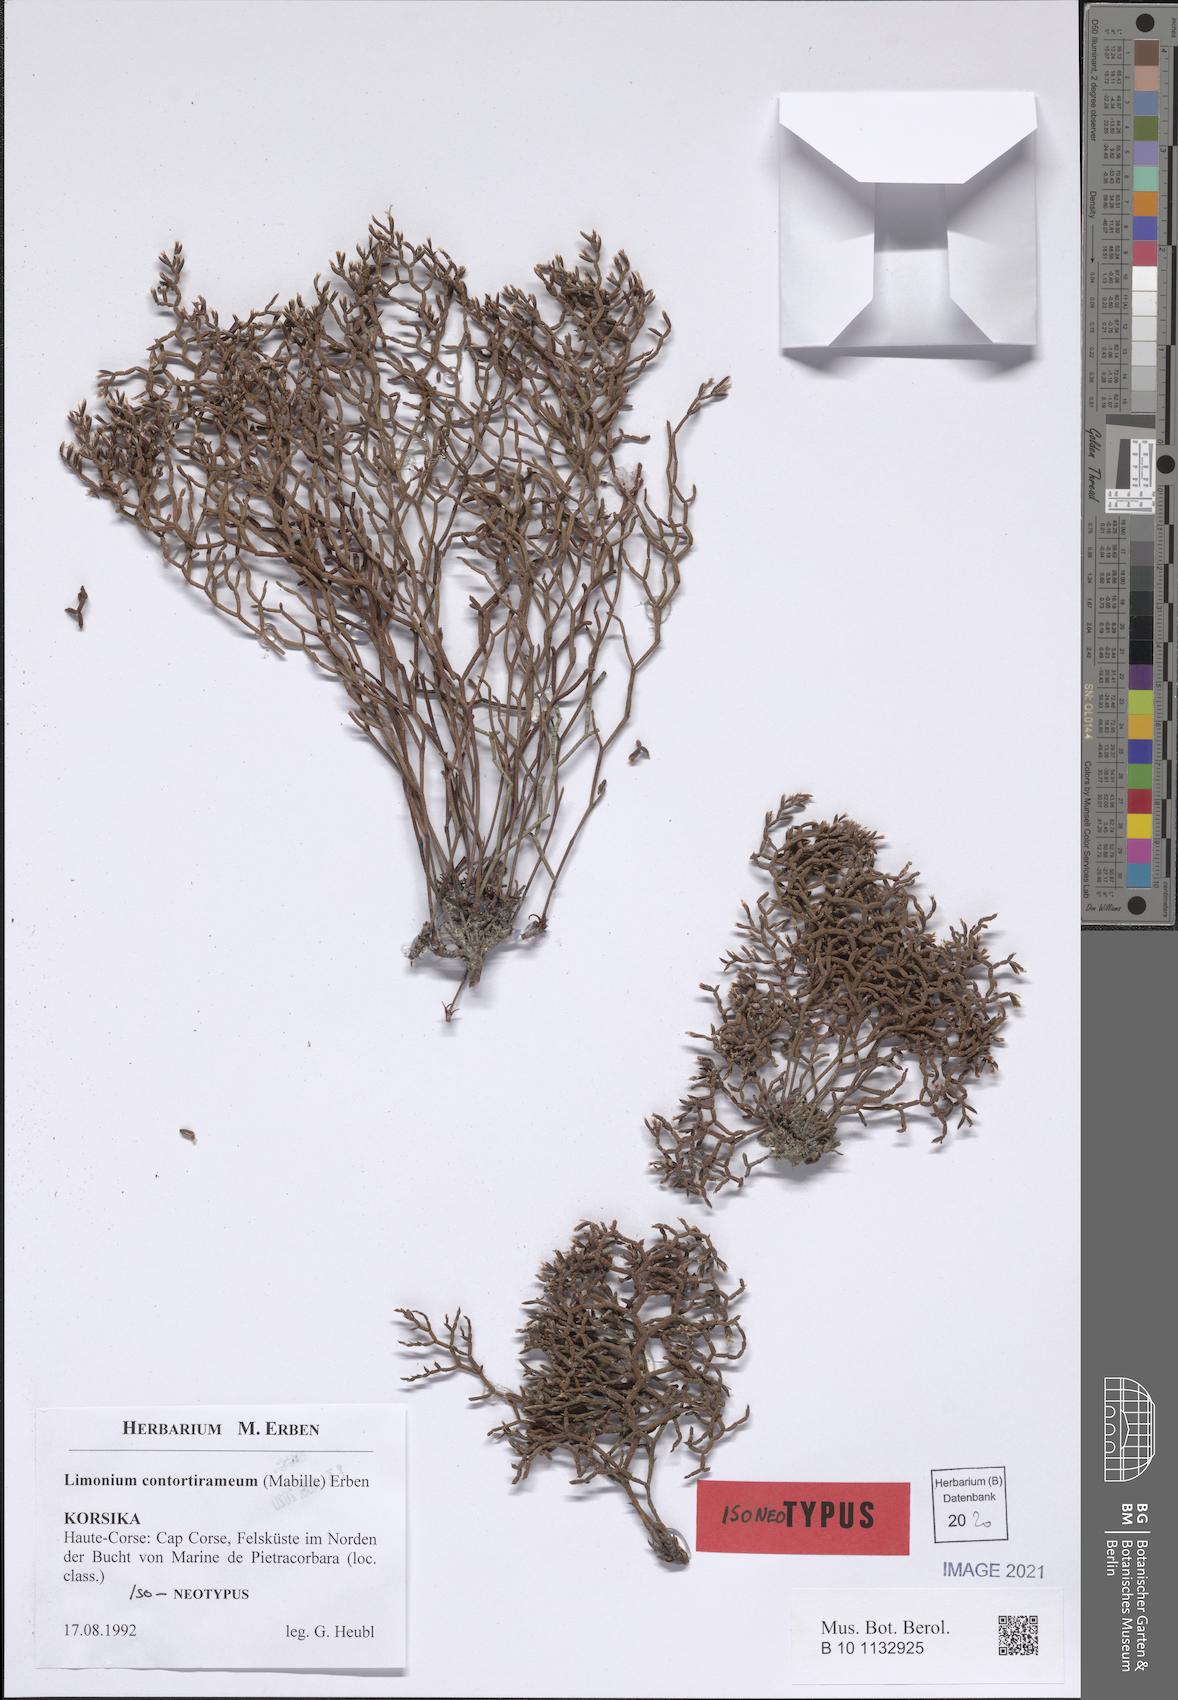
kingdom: Plantae
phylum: Tracheophyta
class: Magnoliopsida
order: Caryophyllales
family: Plumbaginaceae
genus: Limonium
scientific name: Limonium contortirameum
